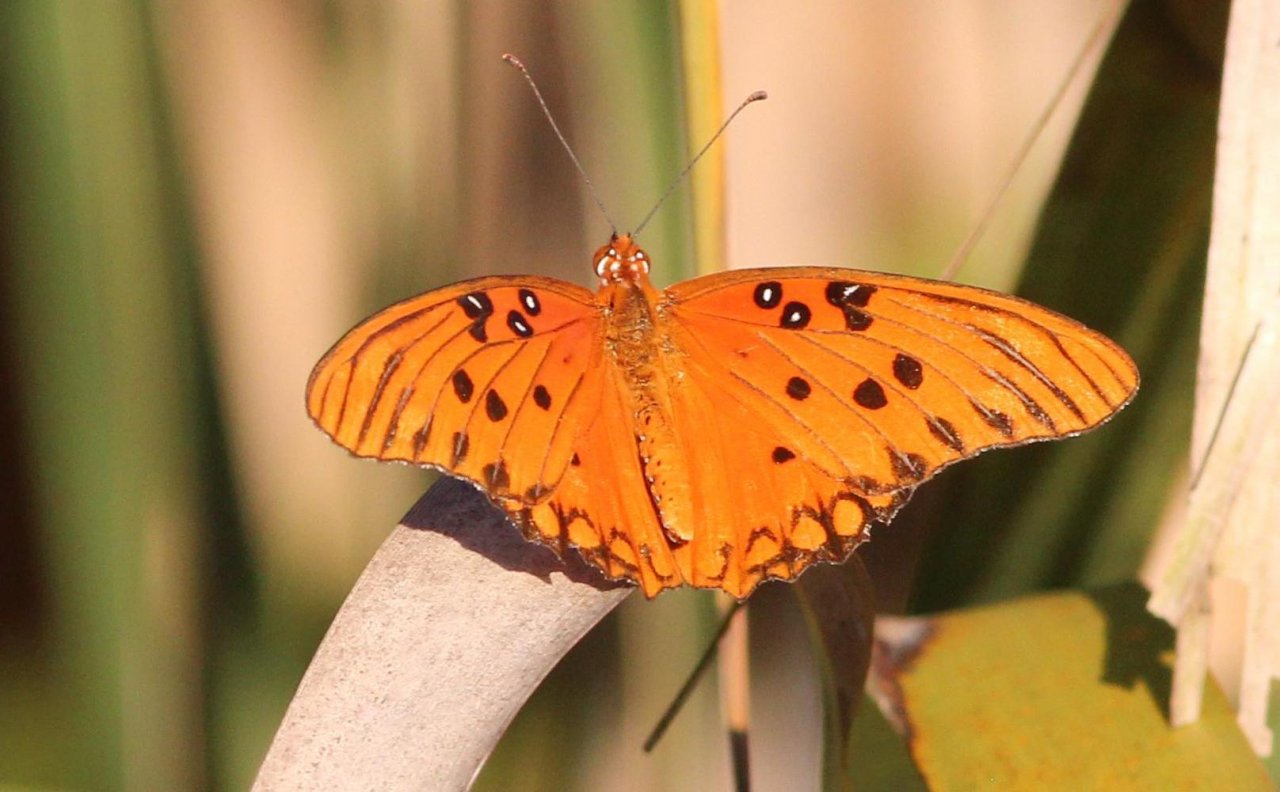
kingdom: Animalia
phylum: Arthropoda
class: Insecta
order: Lepidoptera
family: Nymphalidae
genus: Dione
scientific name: Dione vanillae
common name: Gulf Fritillary
